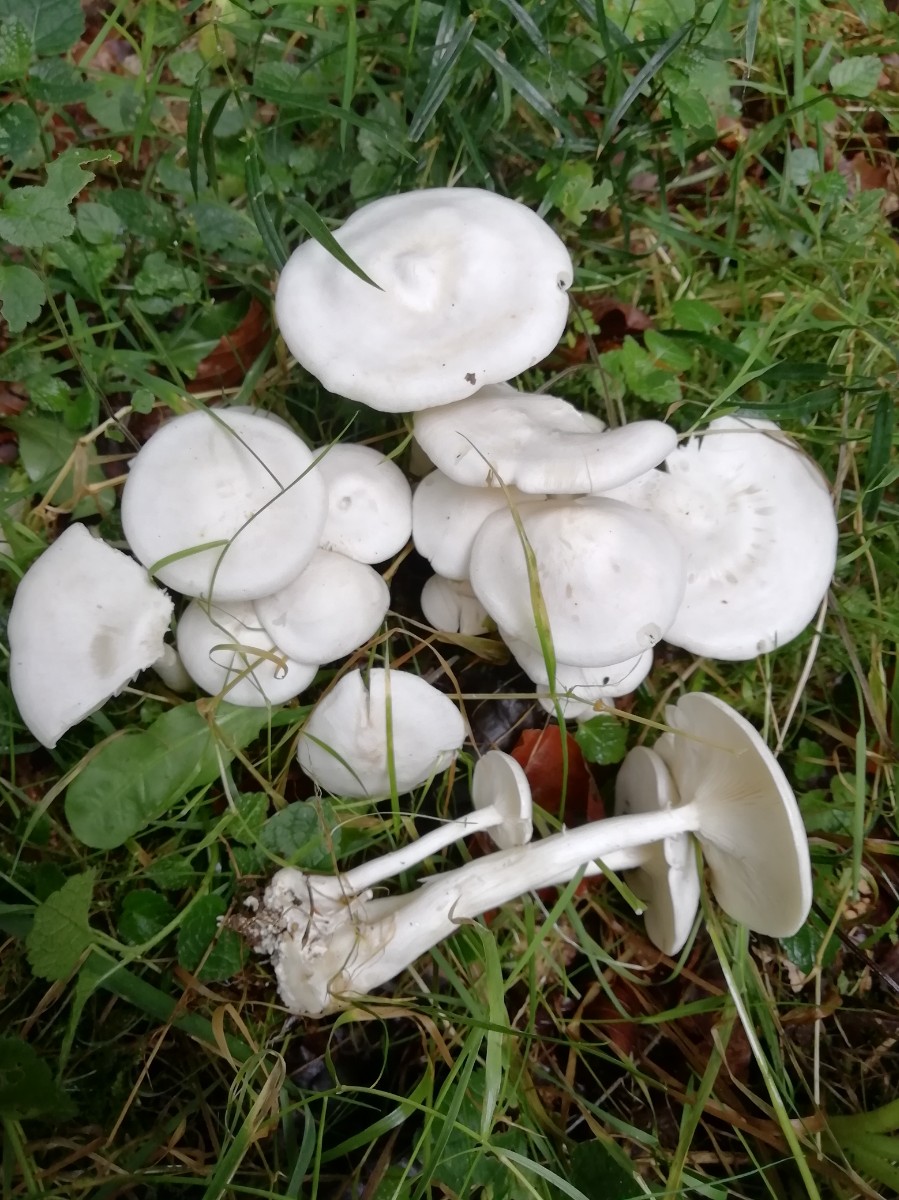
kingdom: Fungi
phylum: Basidiomycota
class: Agaricomycetes
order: Agaricales
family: Tricholomataceae
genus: Leucocybe
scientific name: Leucocybe connata
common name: knippe-tragthat
